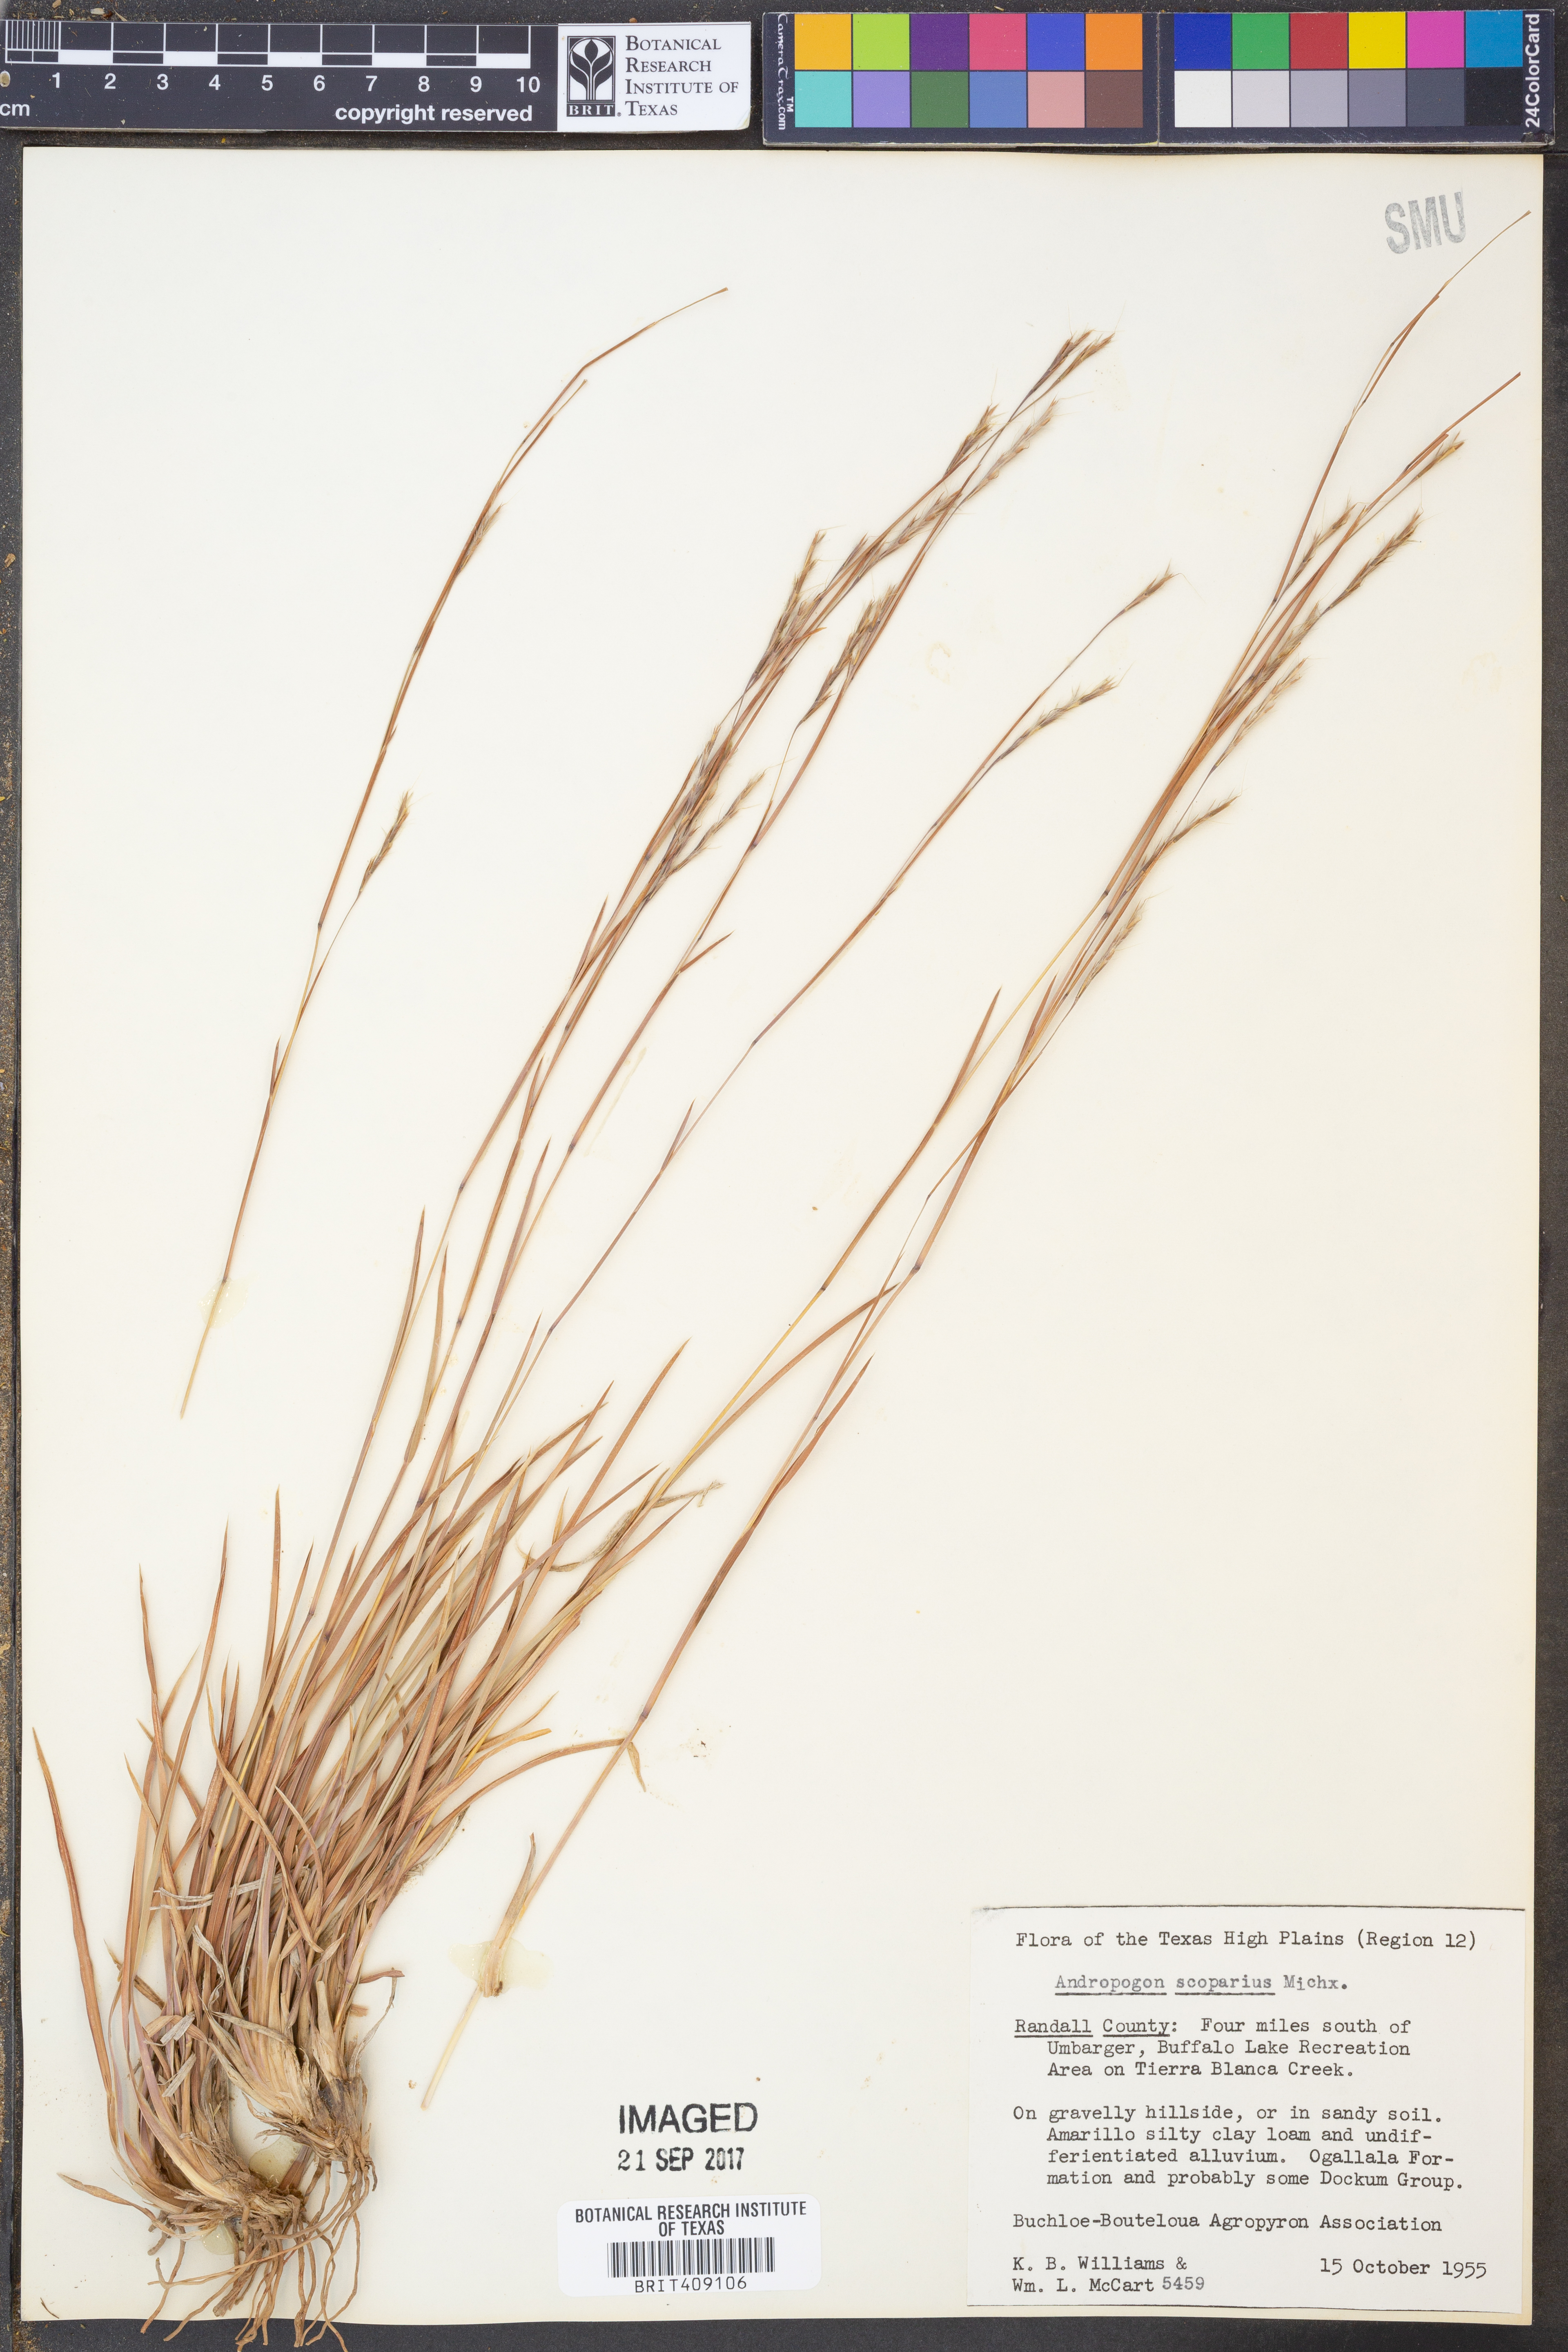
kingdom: Plantae
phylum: Tracheophyta
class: Liliopsida
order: Poales
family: Poaceae
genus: Schizachyrium
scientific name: Schizachyrium scoparium
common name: Little bluestem
